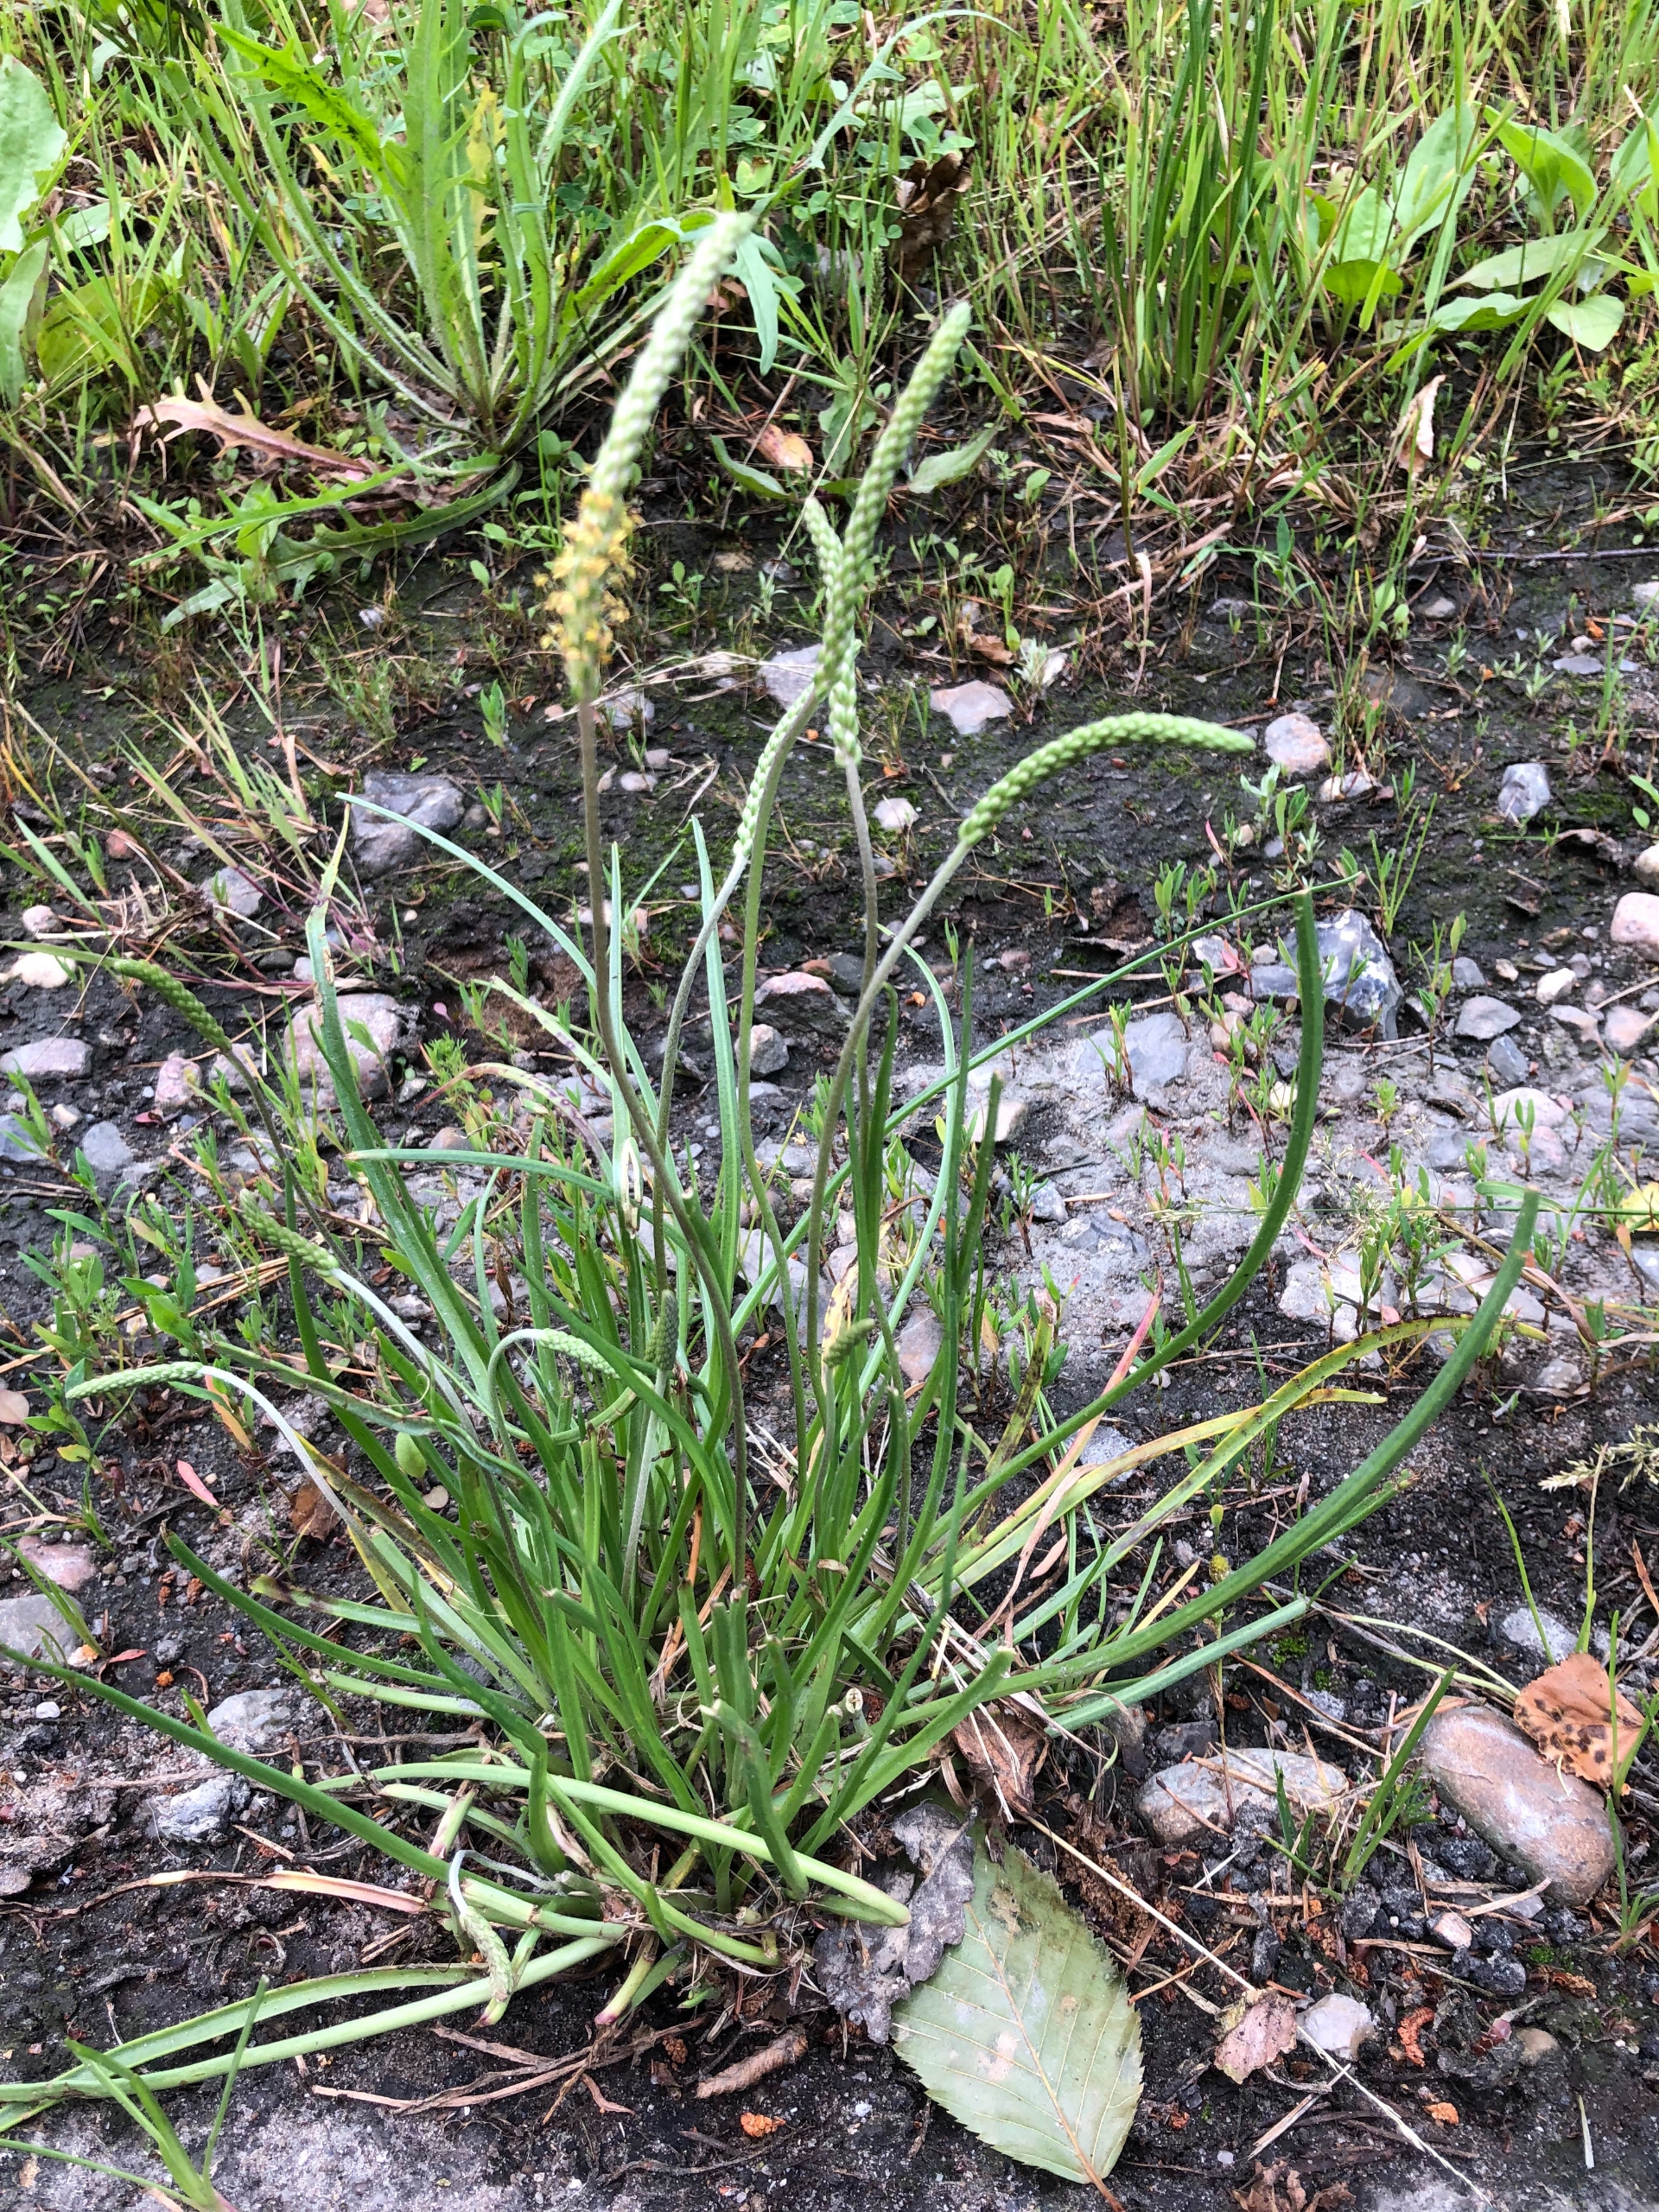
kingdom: Plantae
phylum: Tracheophyta
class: Magnoliopsida
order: Lamiales
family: Plantaginaceae
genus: Plantago
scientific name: Plantago maritima
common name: Strand-vejbred
